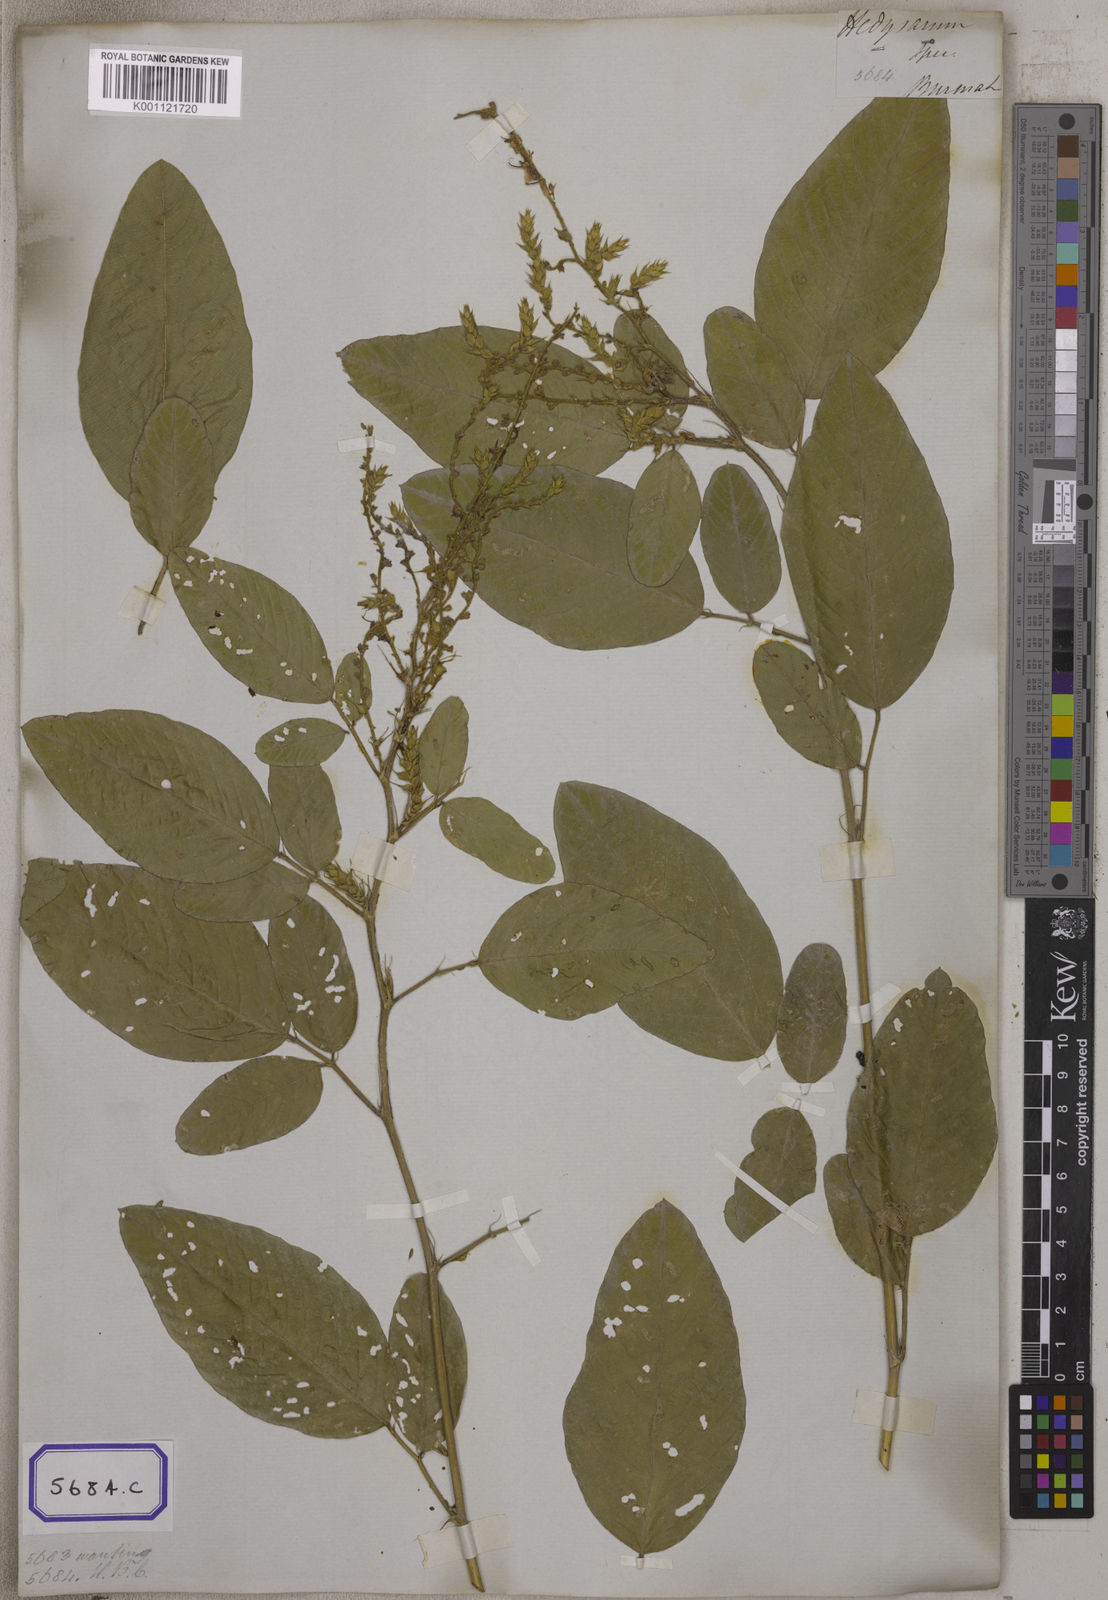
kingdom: Plantae
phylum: Tracheophyta
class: Magnoliopsida
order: Fabales
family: Fabaceae
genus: Uraria
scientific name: Uraria
